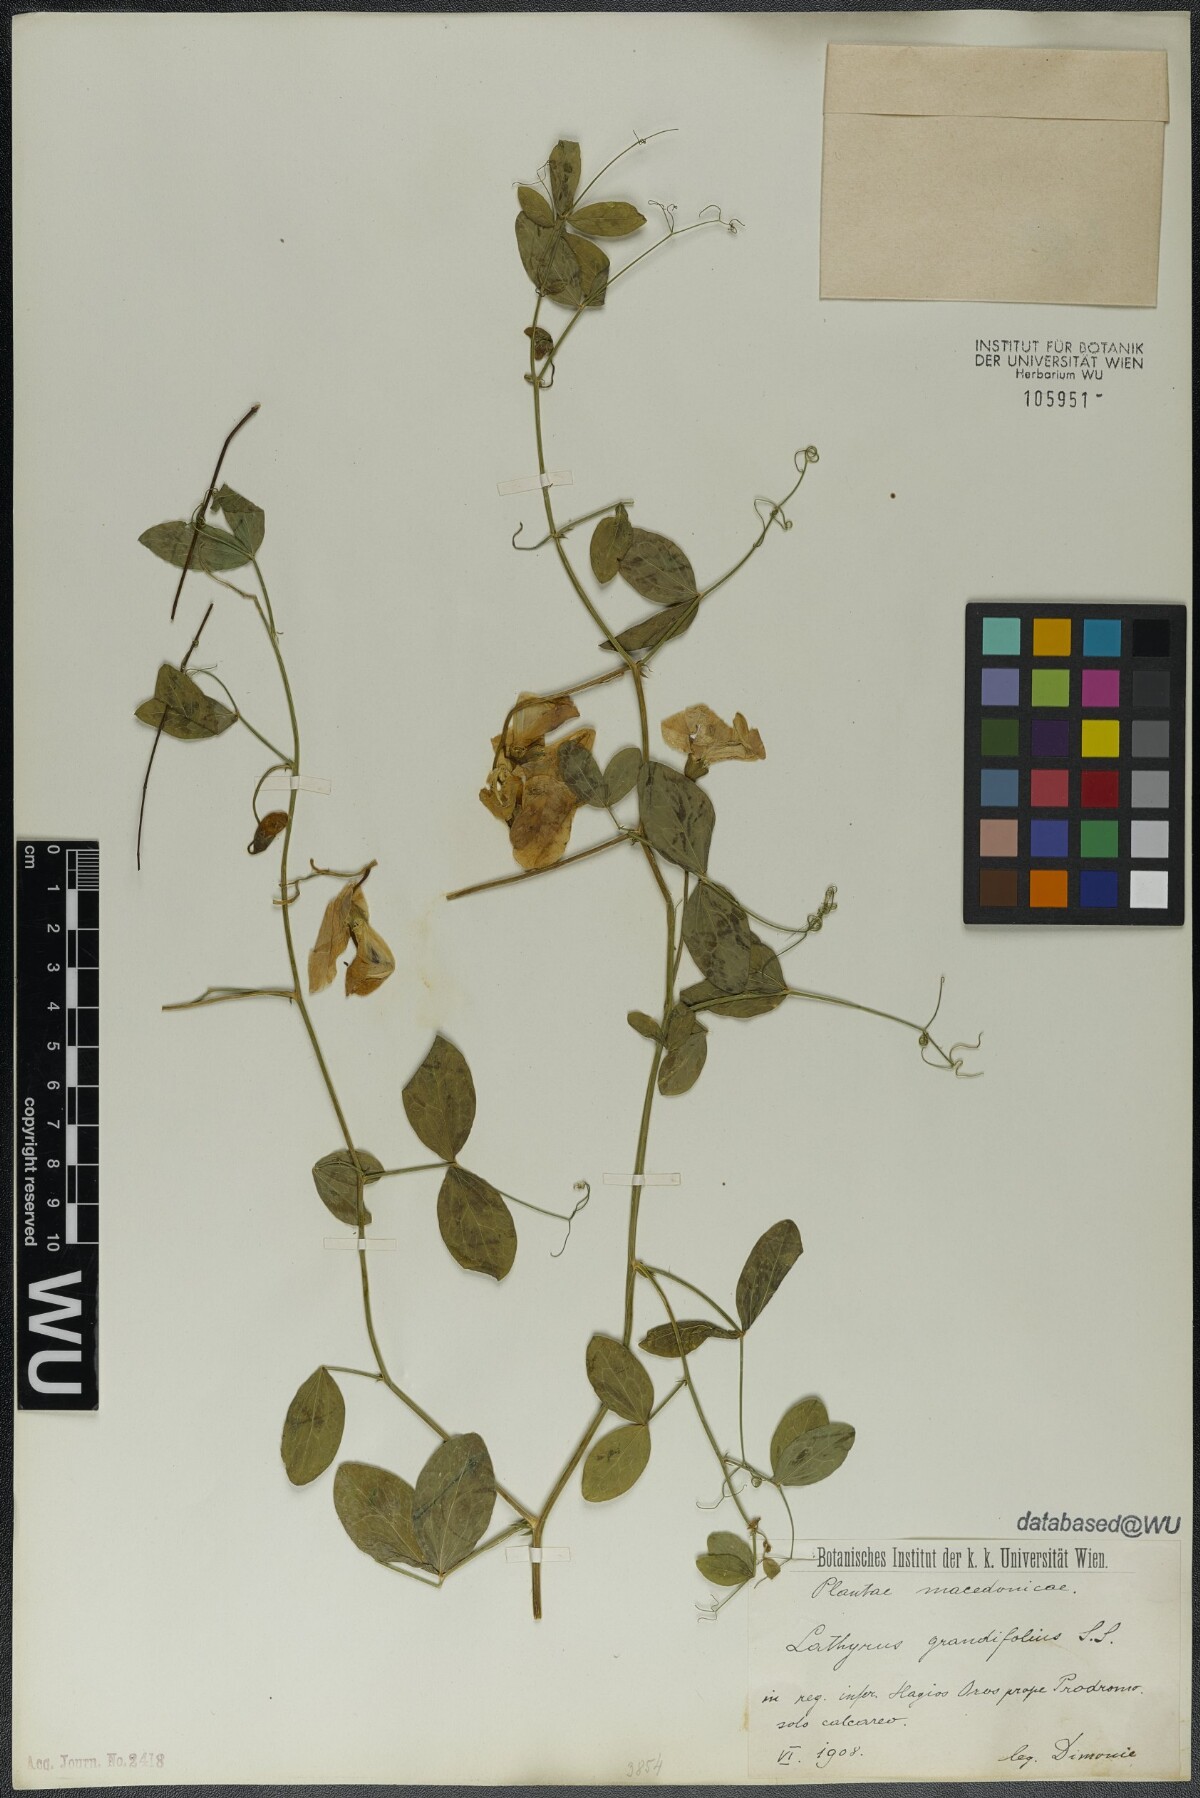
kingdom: Plantae
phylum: Tracheophyta
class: Magnoliopsida
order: Fabales
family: Fabaceae
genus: Lathyrus
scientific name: Lathyrus grandiflorus
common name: Two-flowered everlasting-pea
